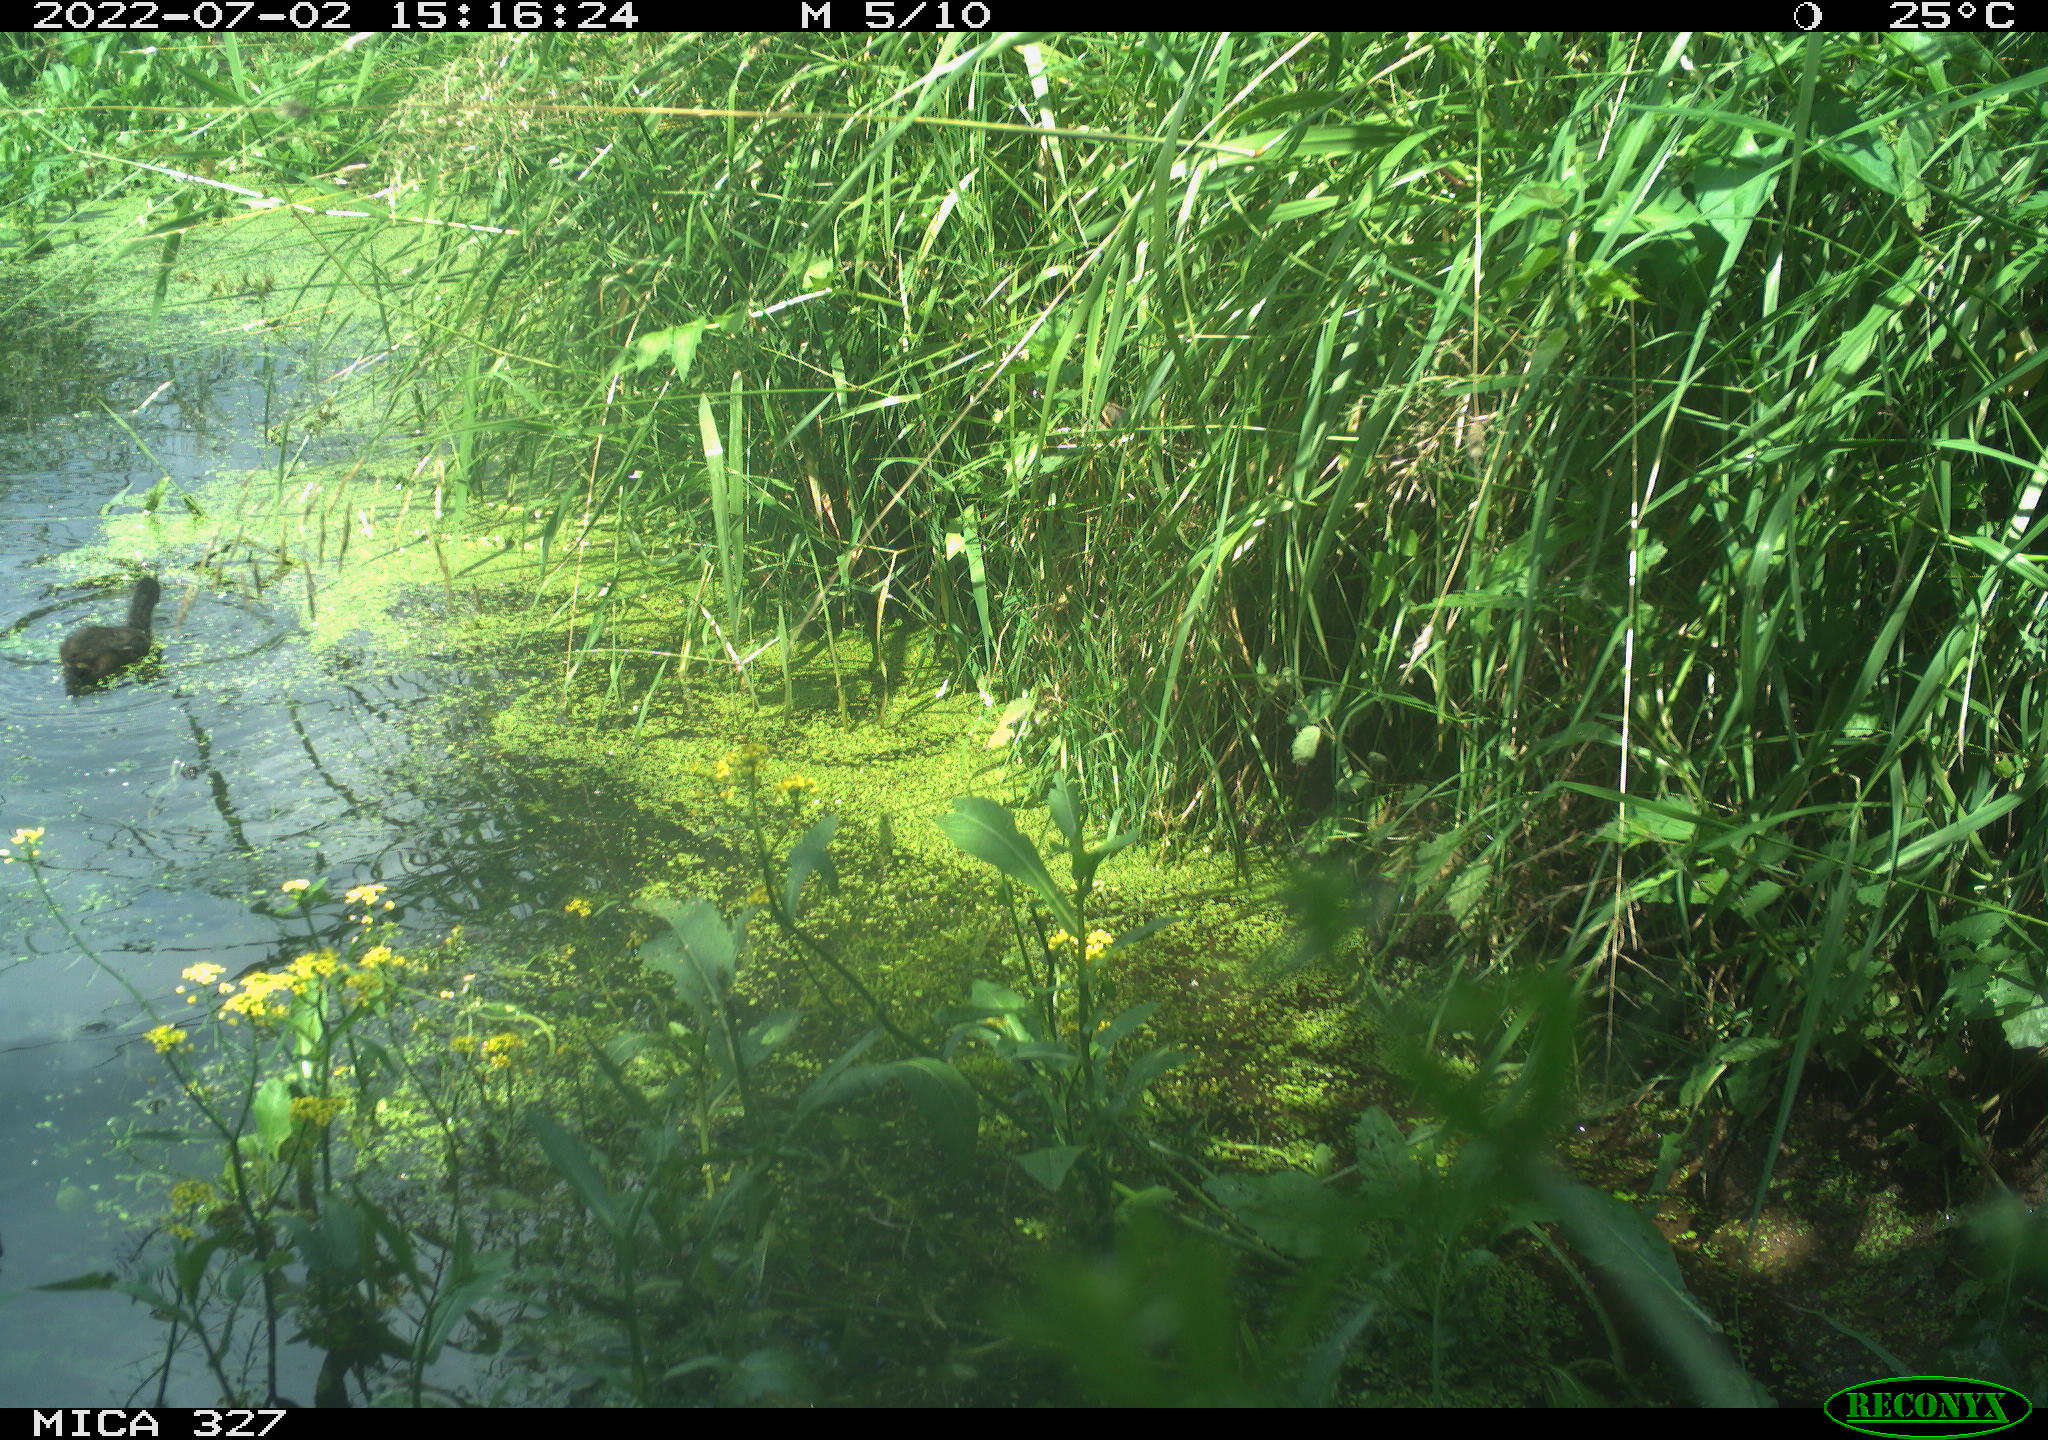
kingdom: Animalia
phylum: Chordata
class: Aves
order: Gruiformes
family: Rallidae
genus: Gallinula
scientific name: Gallinula chloropus
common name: Common moorhen
